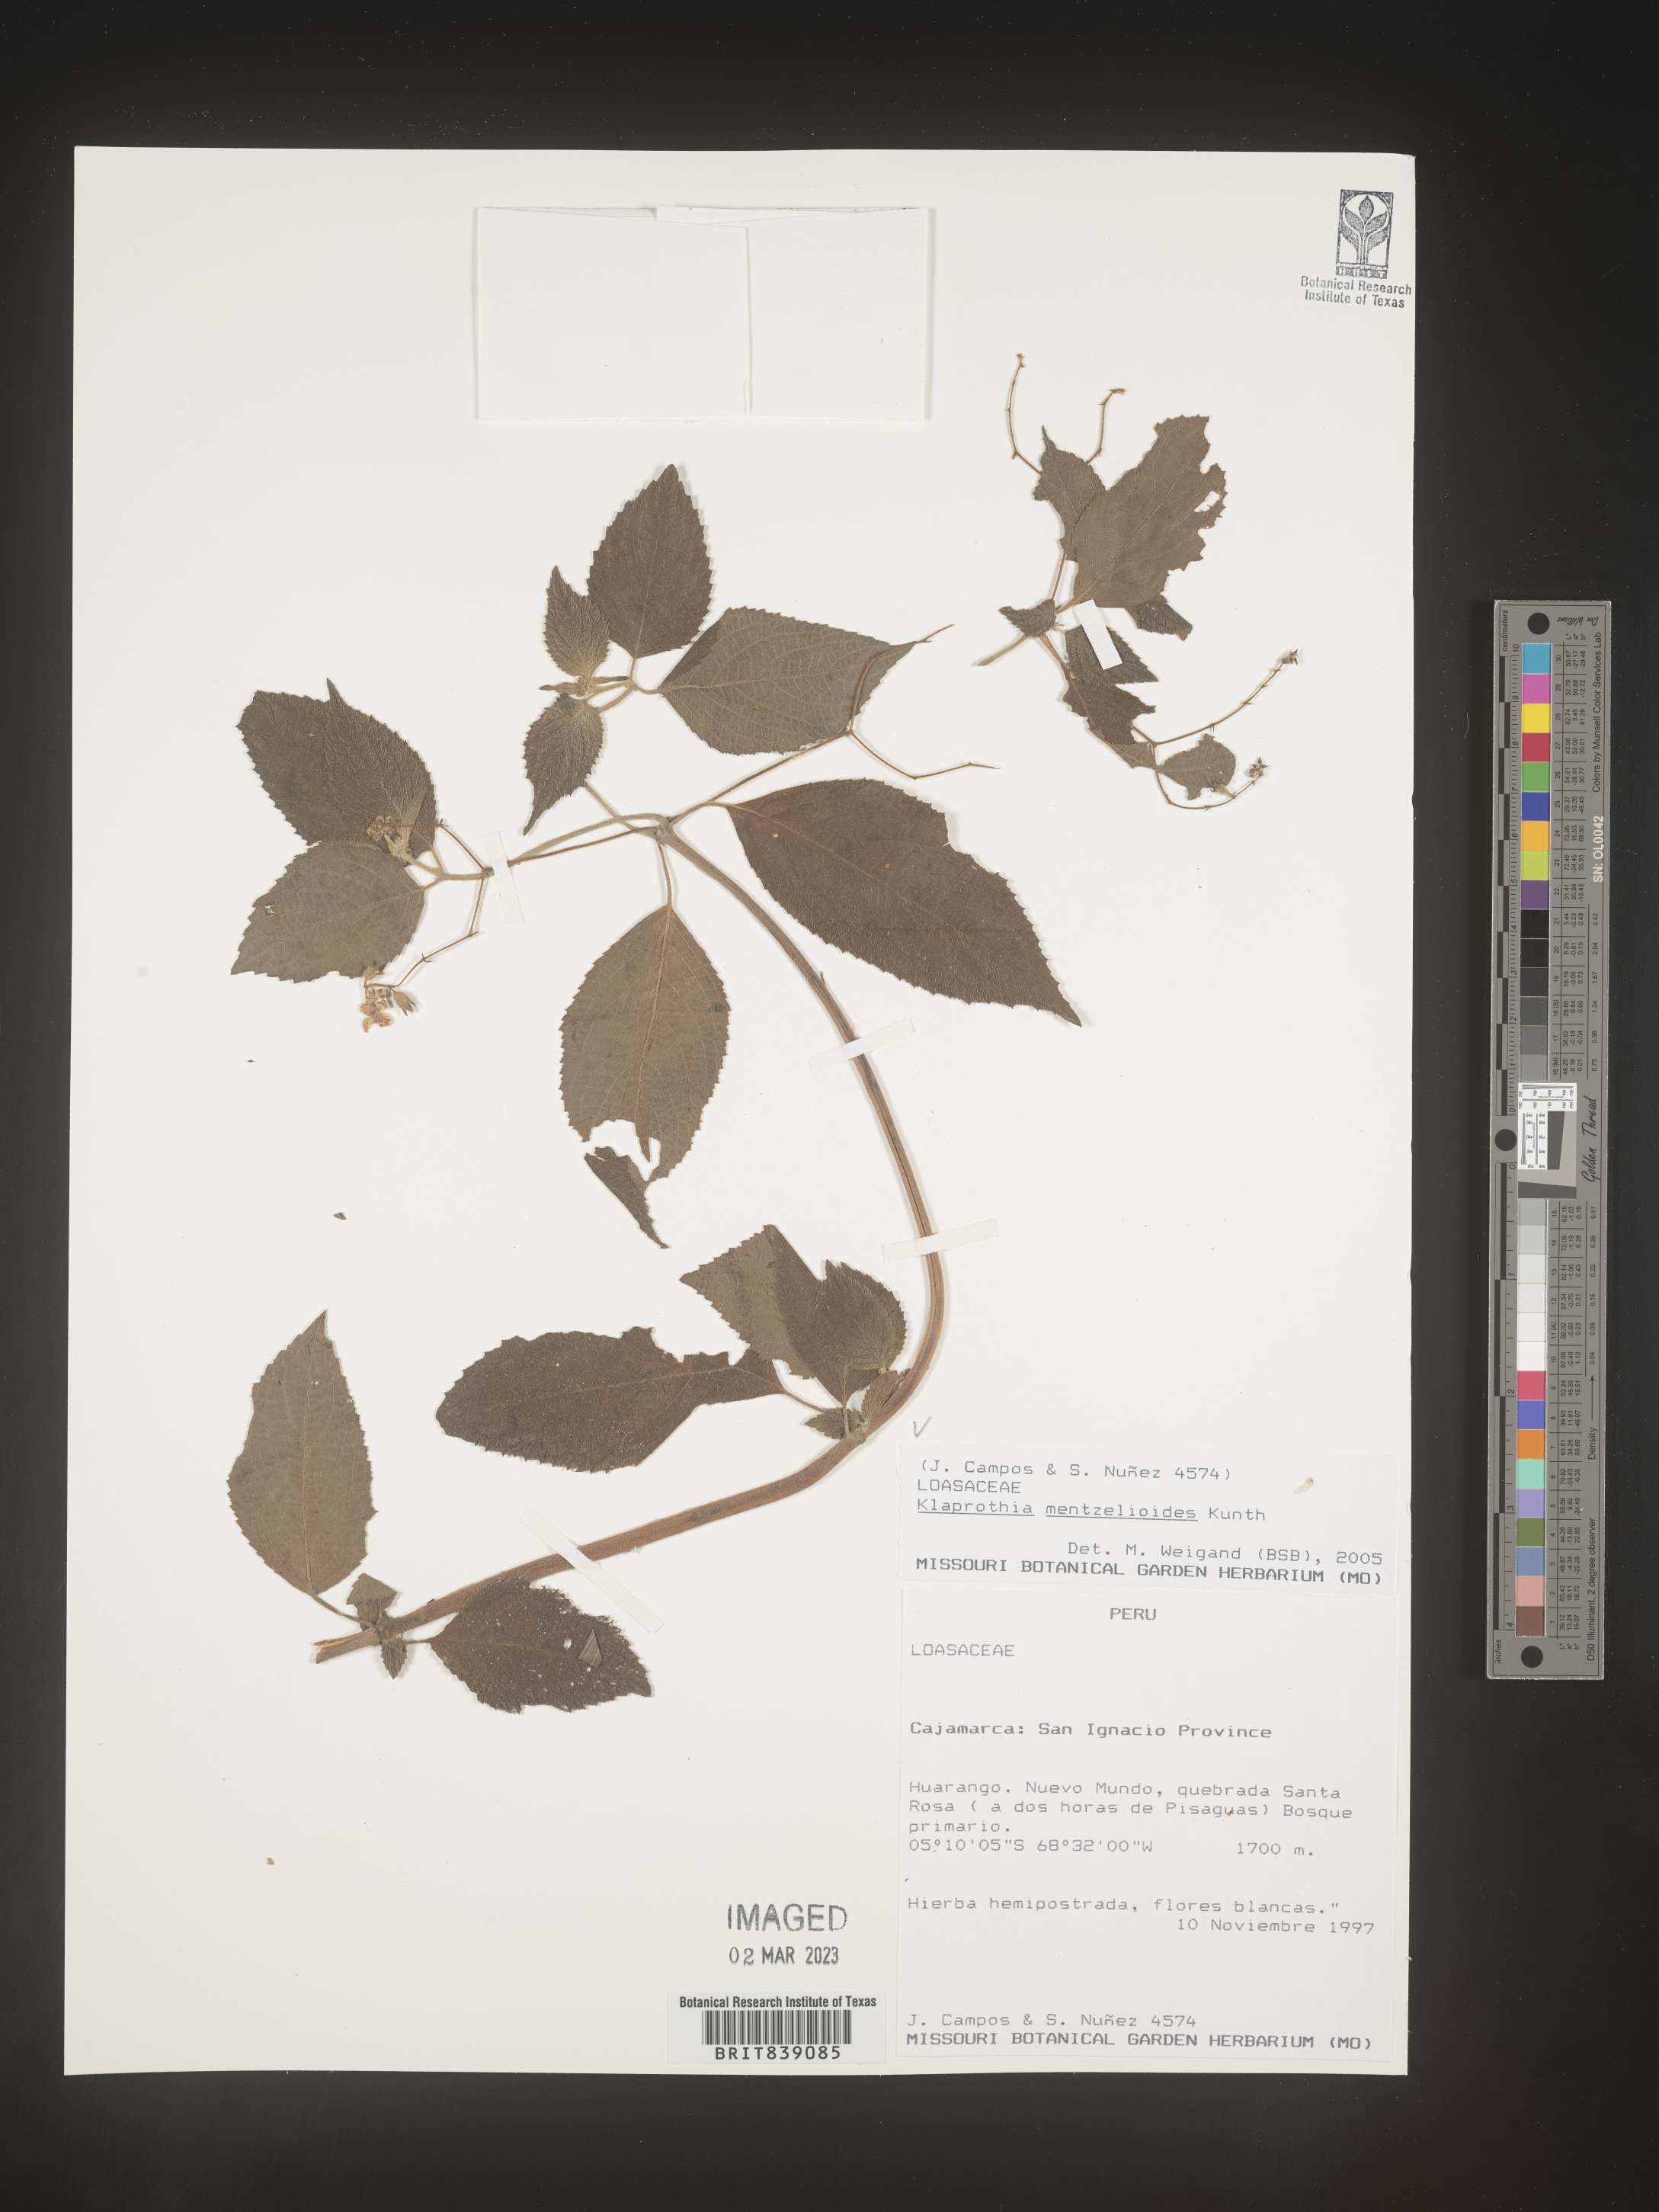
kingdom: Plantae
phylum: Tracheophyta
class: Magnoliopsida
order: Fagales
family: Fagaceae
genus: Quercus
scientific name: Quercus lyrata
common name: Overcup oak
